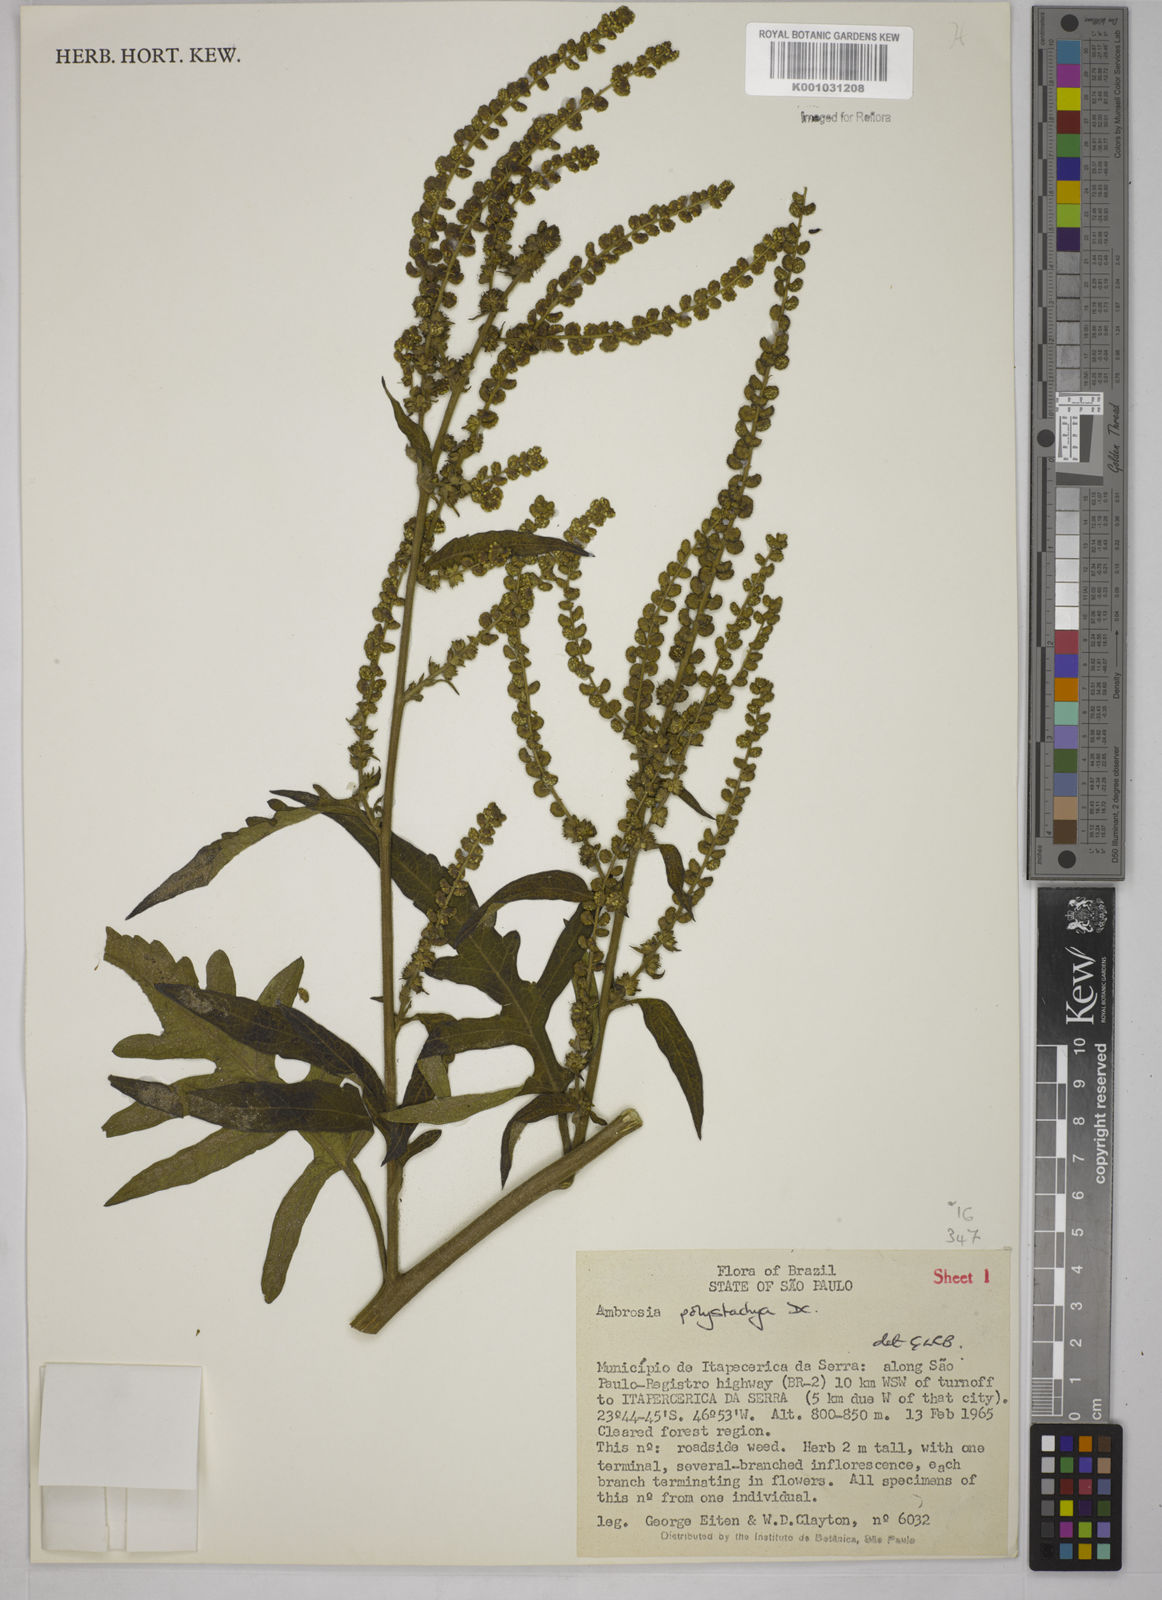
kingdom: Plantae
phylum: Tracheophyta
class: Magnoliopsida
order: Asterales
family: Asteraceae
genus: Ambrosia
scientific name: Ambrosia polystachya
